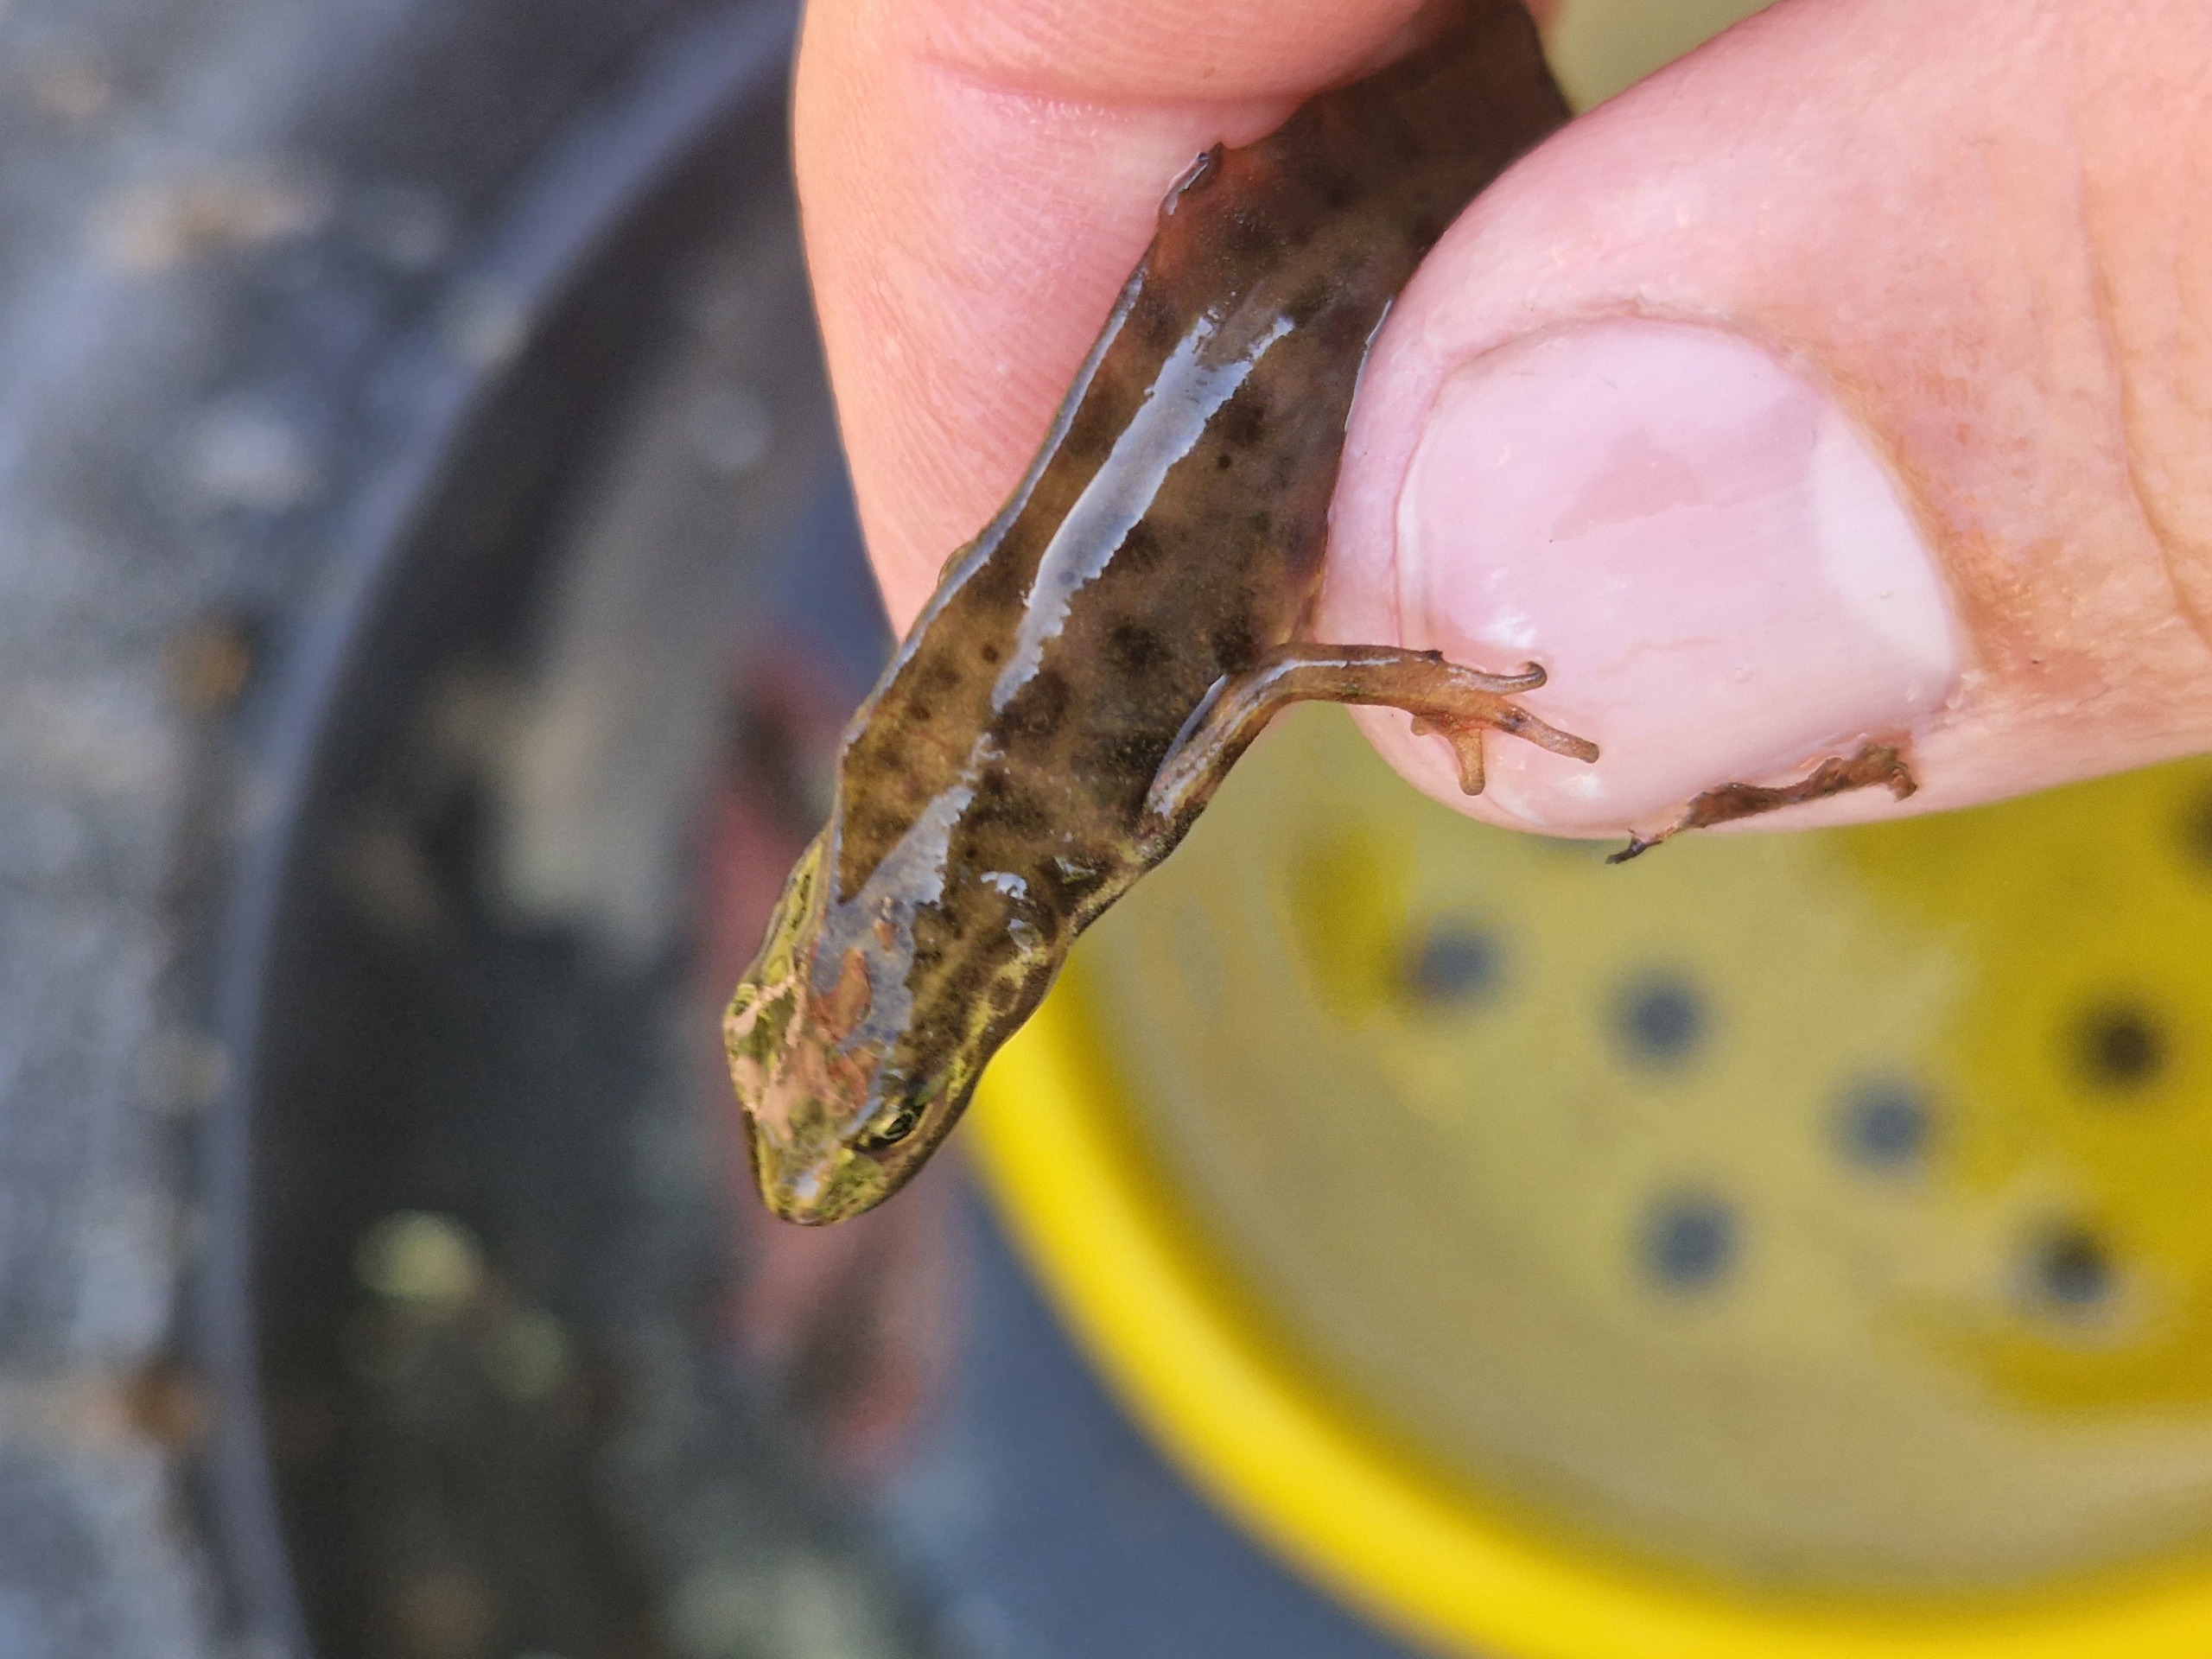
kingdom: Animalia
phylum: Chordata
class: Amphibia
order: Caudata
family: Salamandridae
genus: Lissotriton
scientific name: Lissotriton vulgaris
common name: Lille vandsalamander
